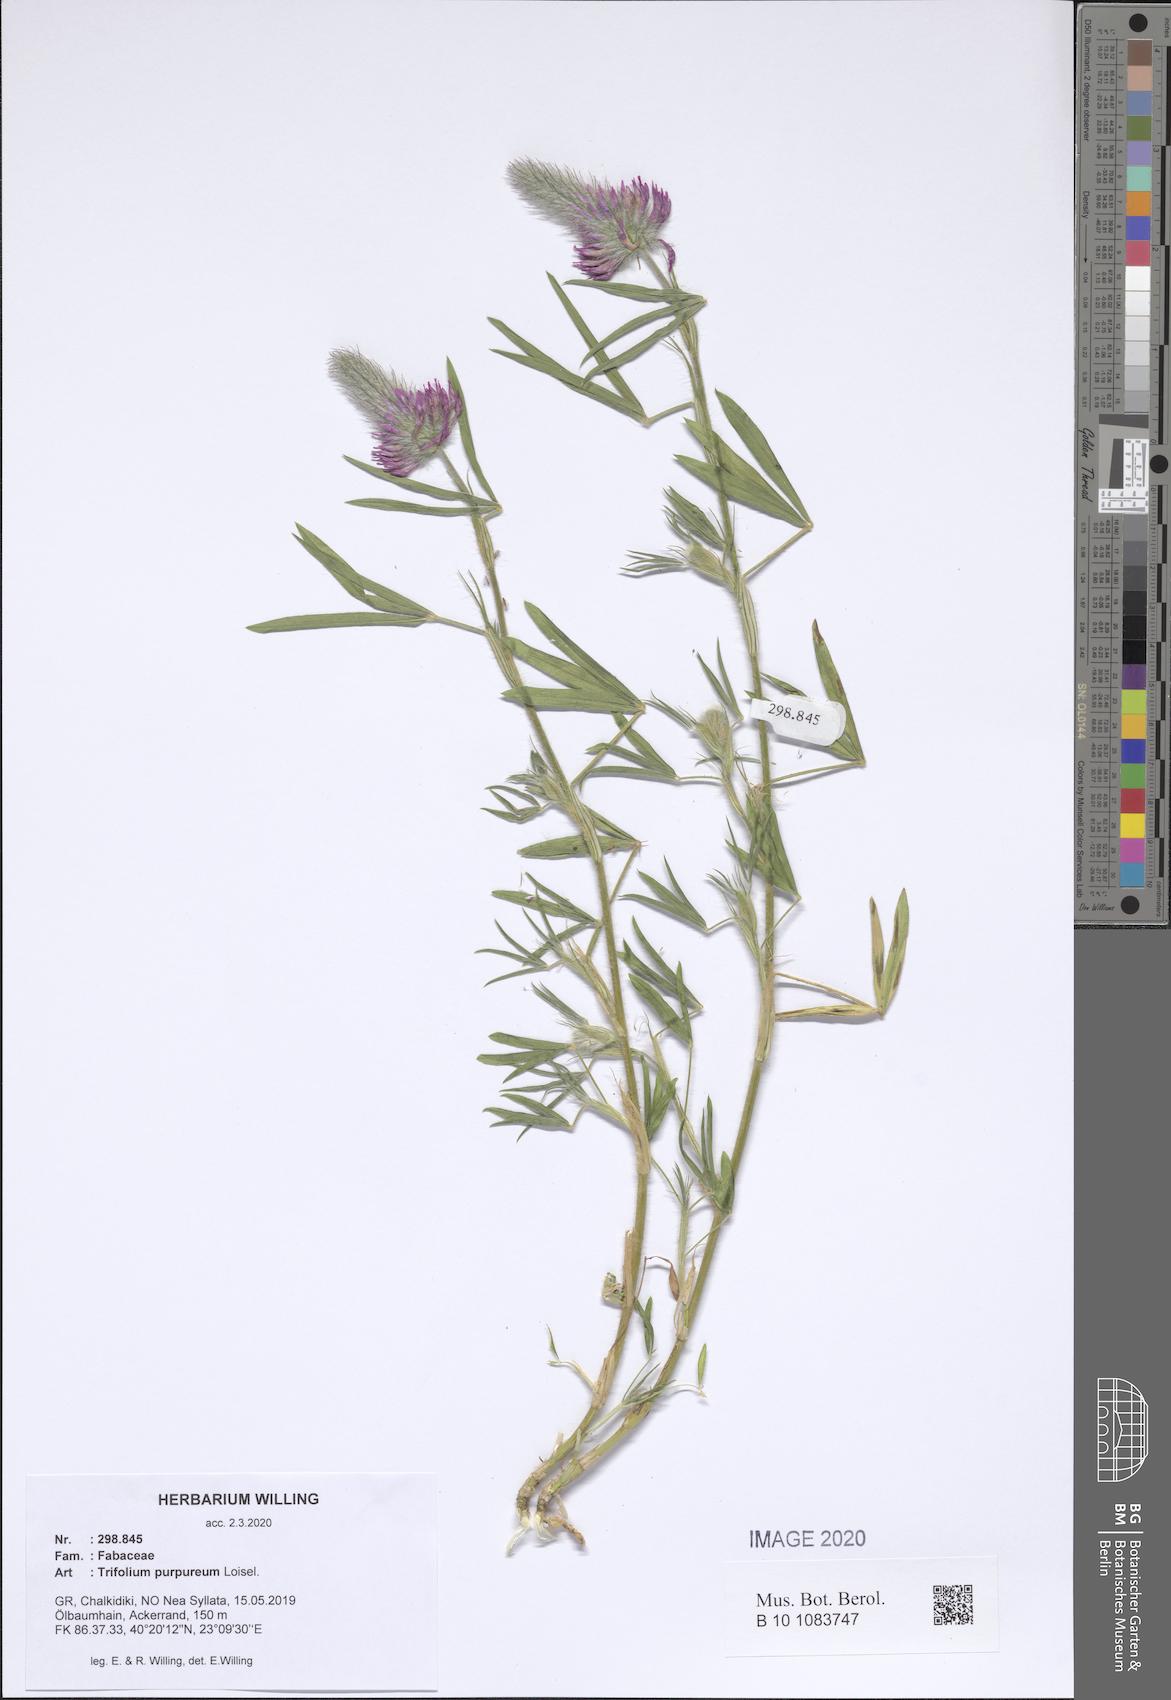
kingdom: Plantae
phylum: Tracheophyta
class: Magnoliopsida
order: Fabales
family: Fabaceae
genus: Trifolium
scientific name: Trifolium purpureum
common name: Purple clover
